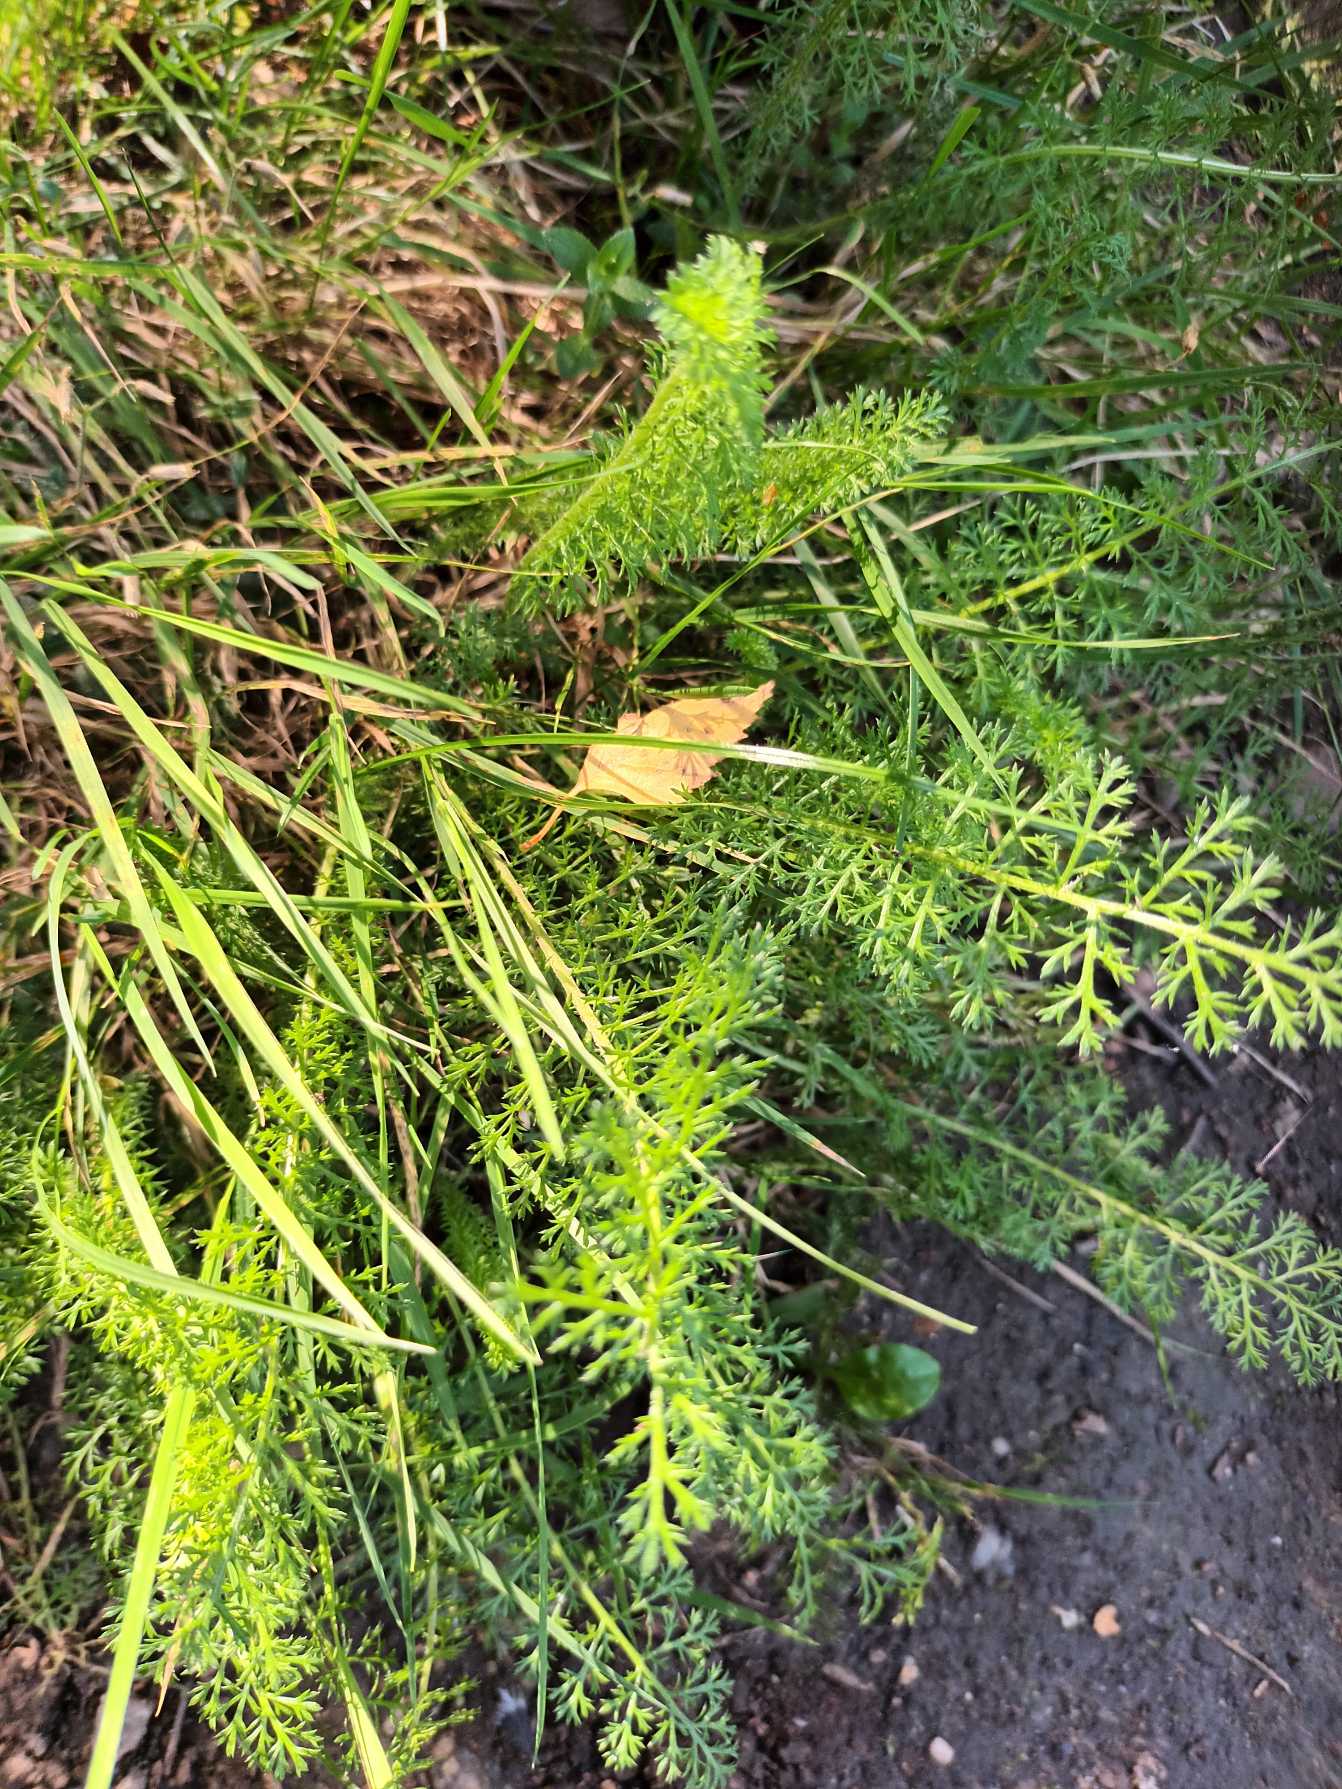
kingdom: Plantae
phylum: Tracheophyta
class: Magnoliopsida
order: Asterales
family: Asteraceae
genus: Achillea
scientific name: Achillea millefolium
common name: Almindelig røllike
